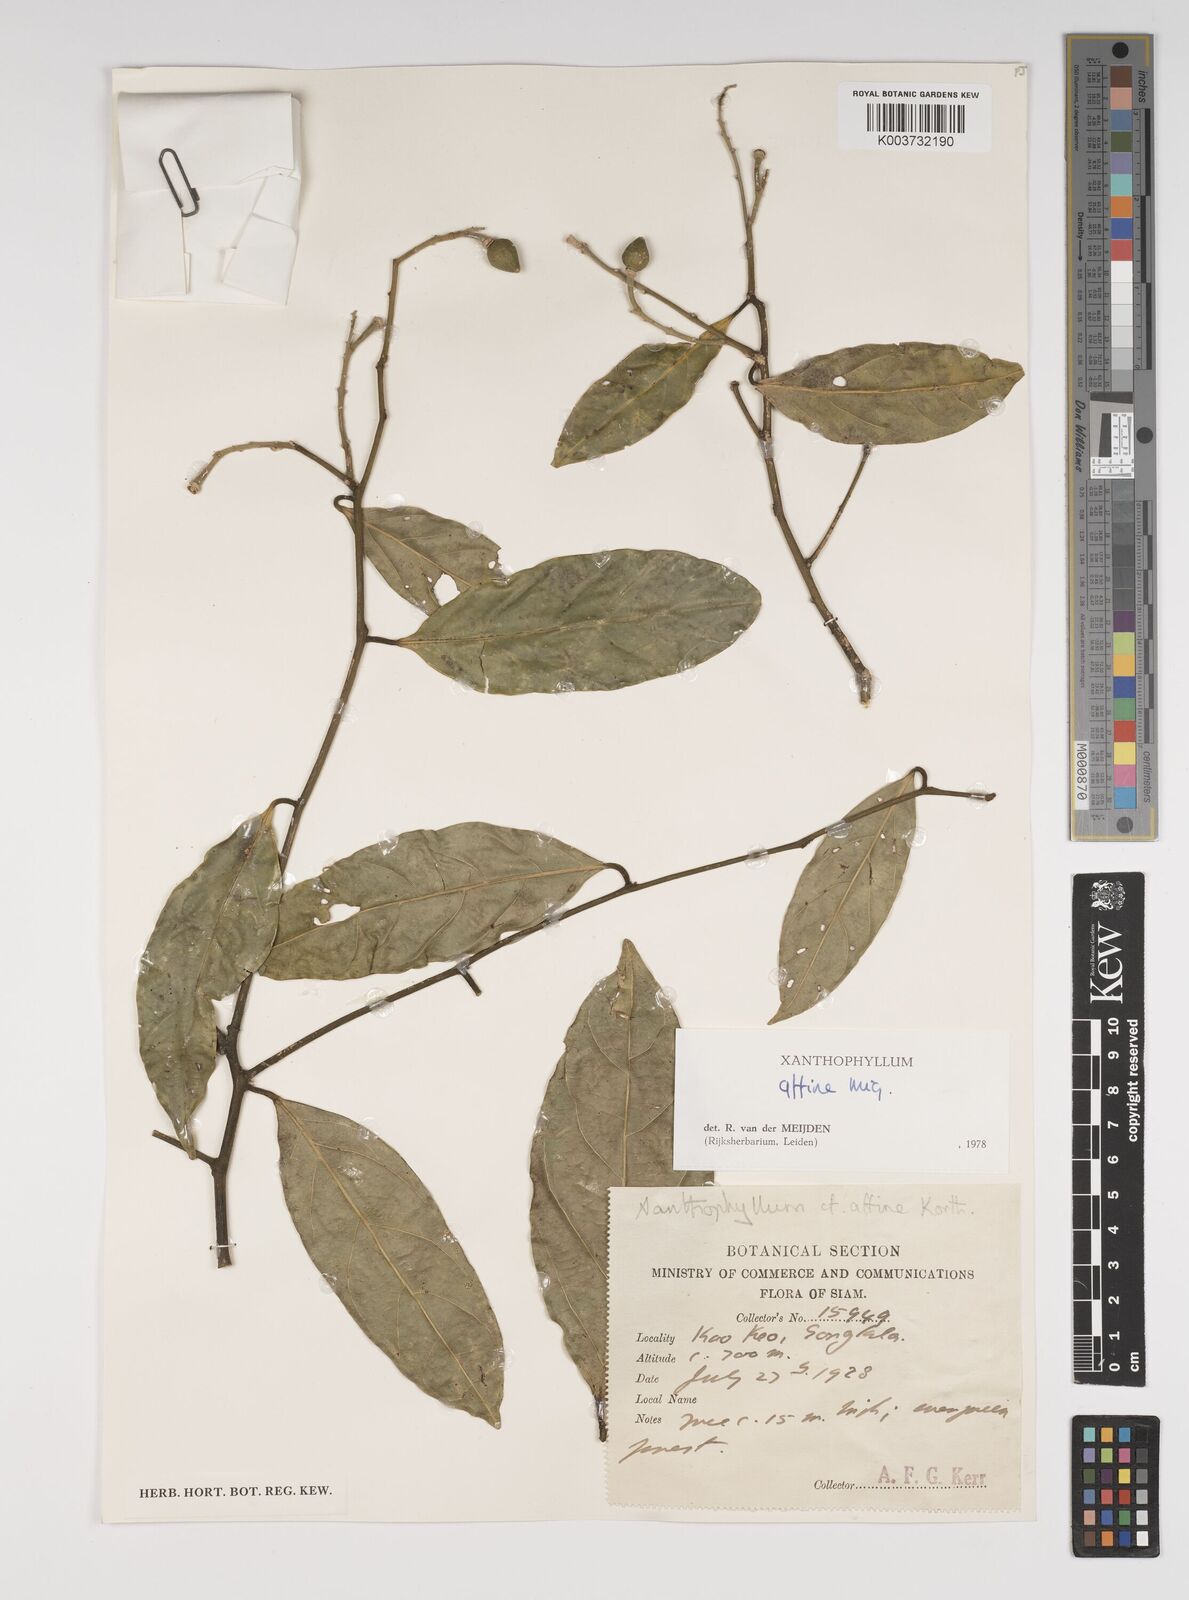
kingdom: Plantae
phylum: Tracheophyta
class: Magnoliopsida
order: Fabales
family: Polygalaceae
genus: Xanthophyllum
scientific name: Xanthophyllum flavescens
